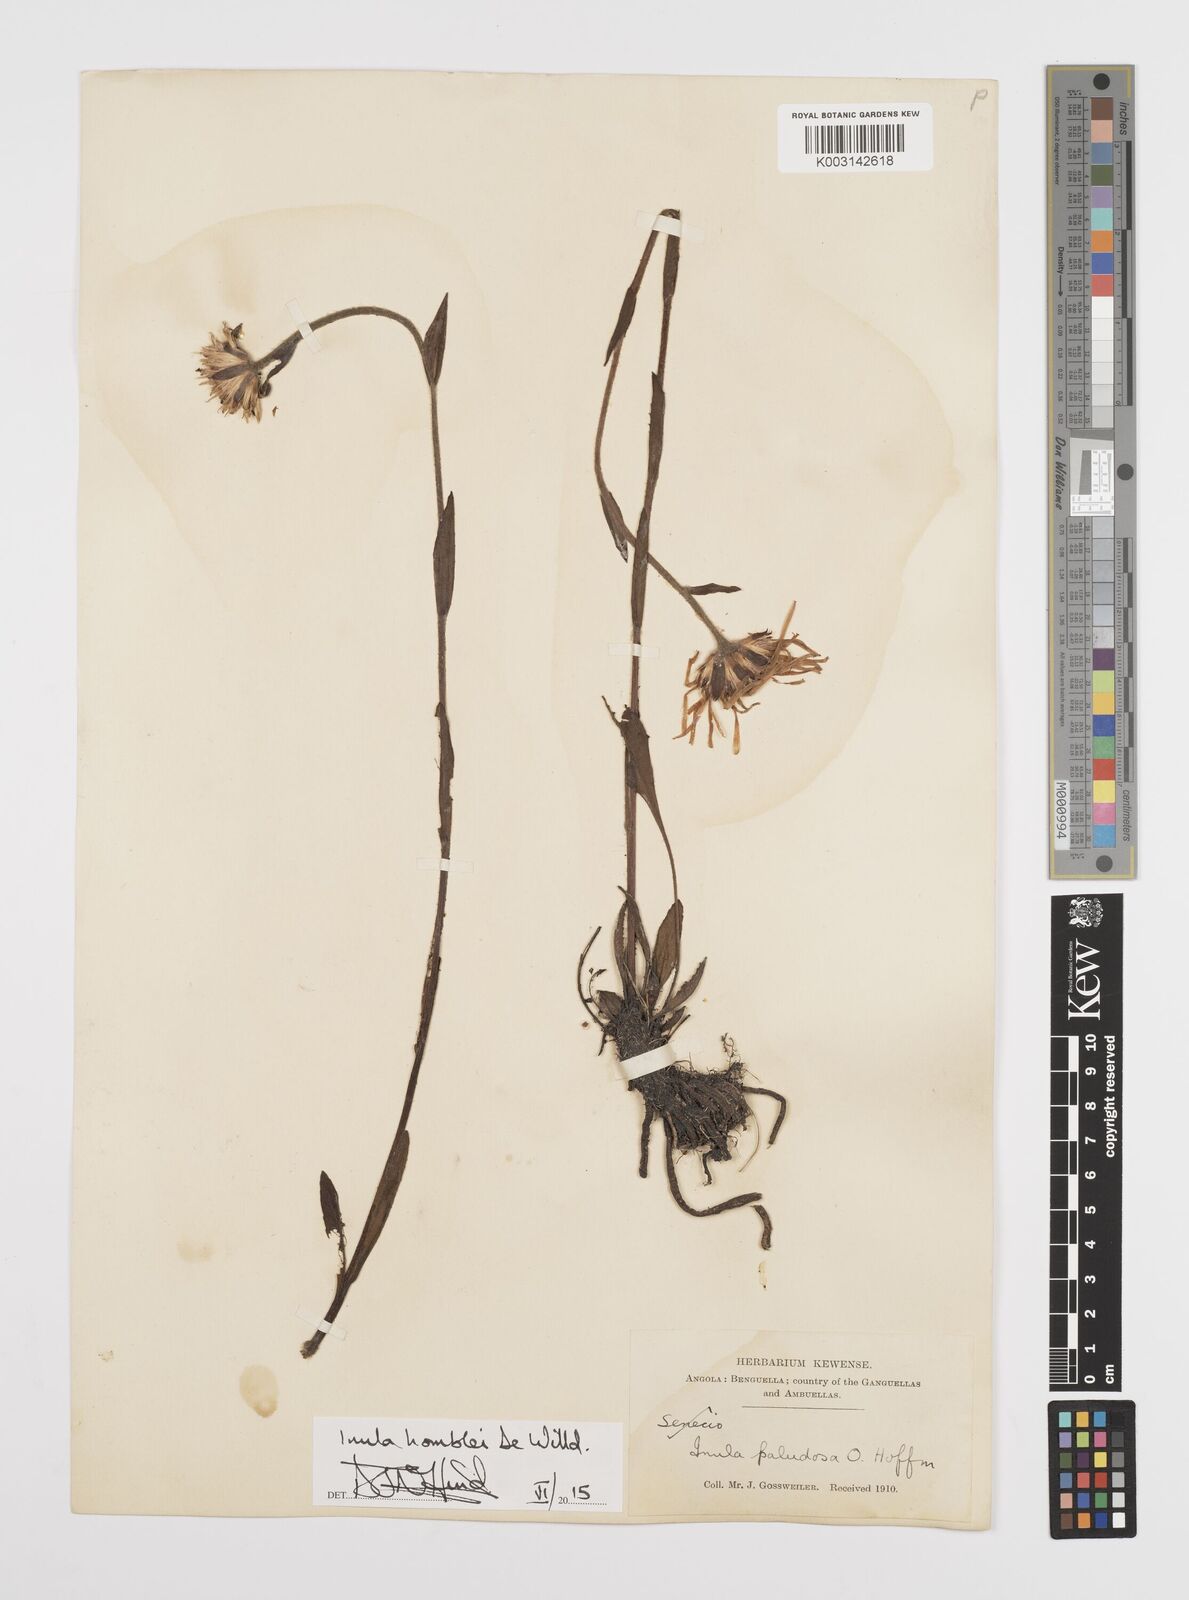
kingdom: Plantae
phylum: Tracheophyta
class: Magnoliopsida
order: Asterales
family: Asteraceae
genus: Inula
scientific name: Inula paludosa
